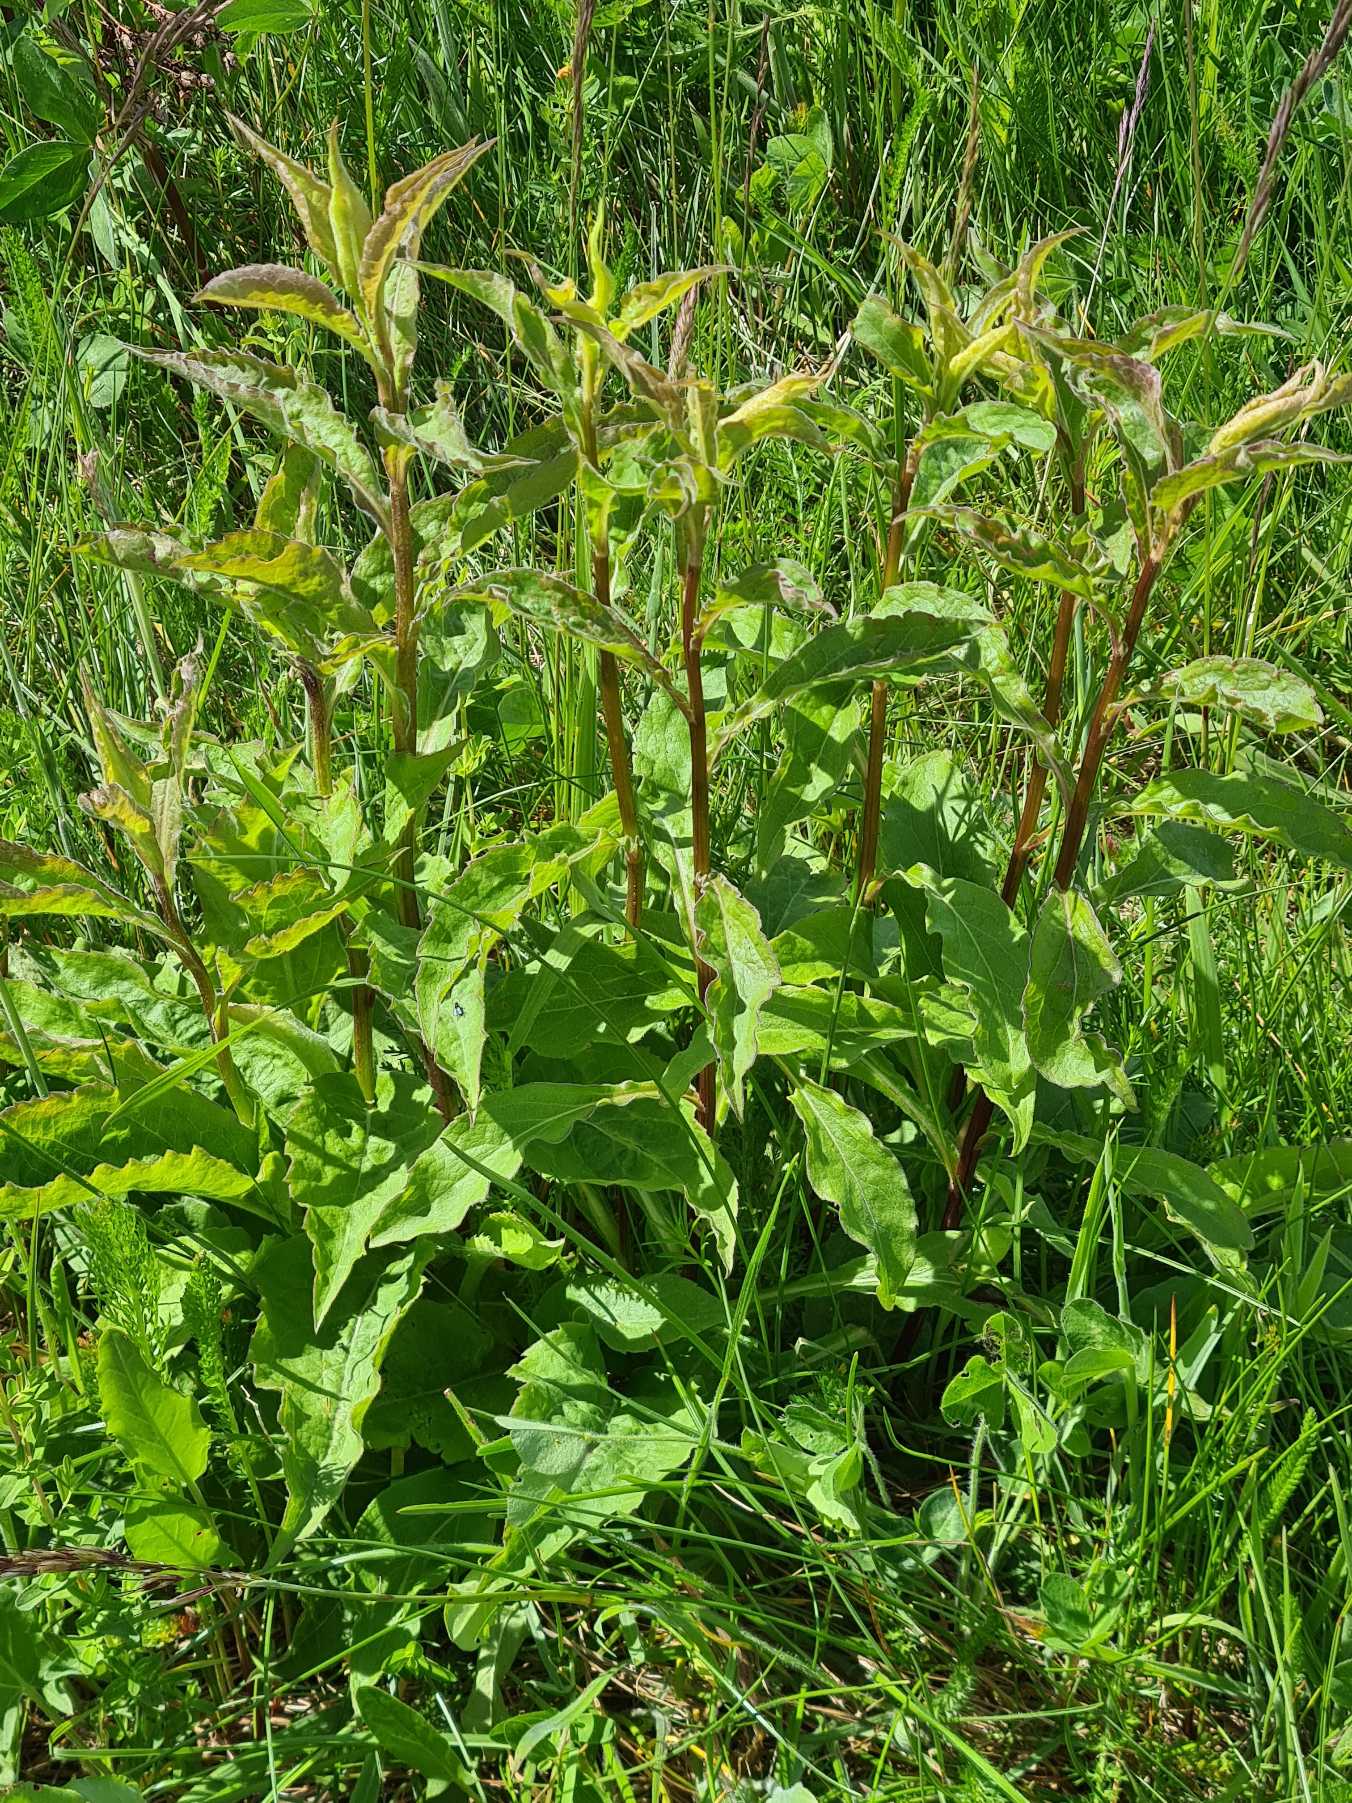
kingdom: Plantae
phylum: Tracheophyta
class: Magnoliopsida
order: Asterales
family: Asteraceae
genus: Solidago
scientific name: Solidago virgaurea
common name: Almindelig gyldenris
